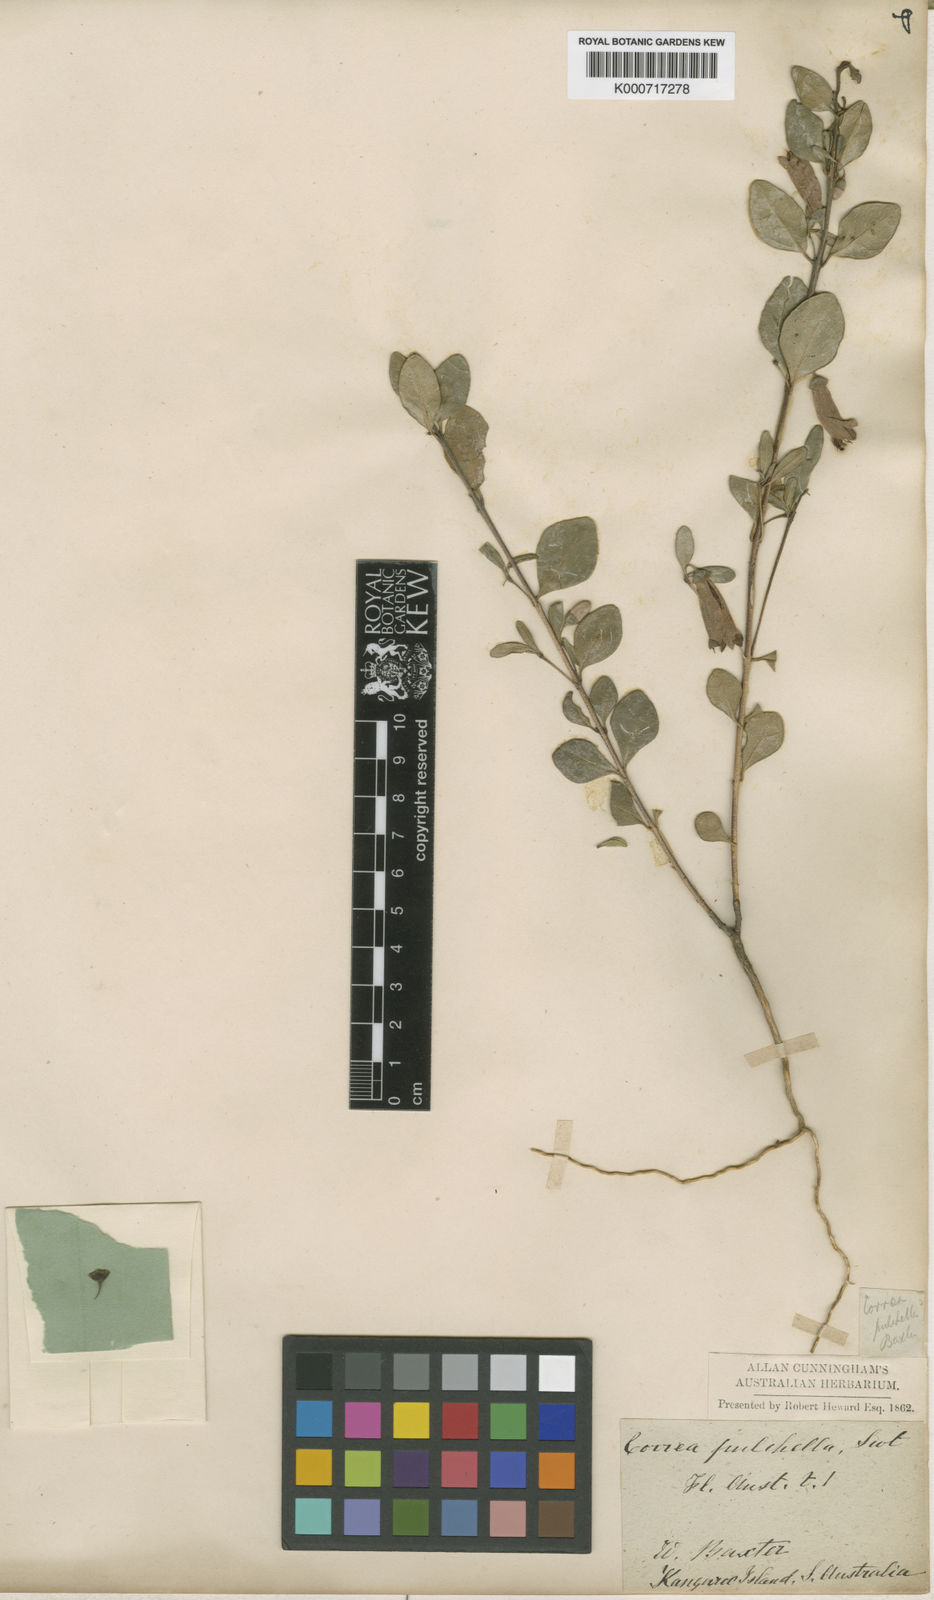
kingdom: Plantae
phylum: Tracheophyta
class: Magnoliopsida
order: Sapindales
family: Rutaceae
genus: Correa
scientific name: Correa pulchella
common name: Salmon correa
